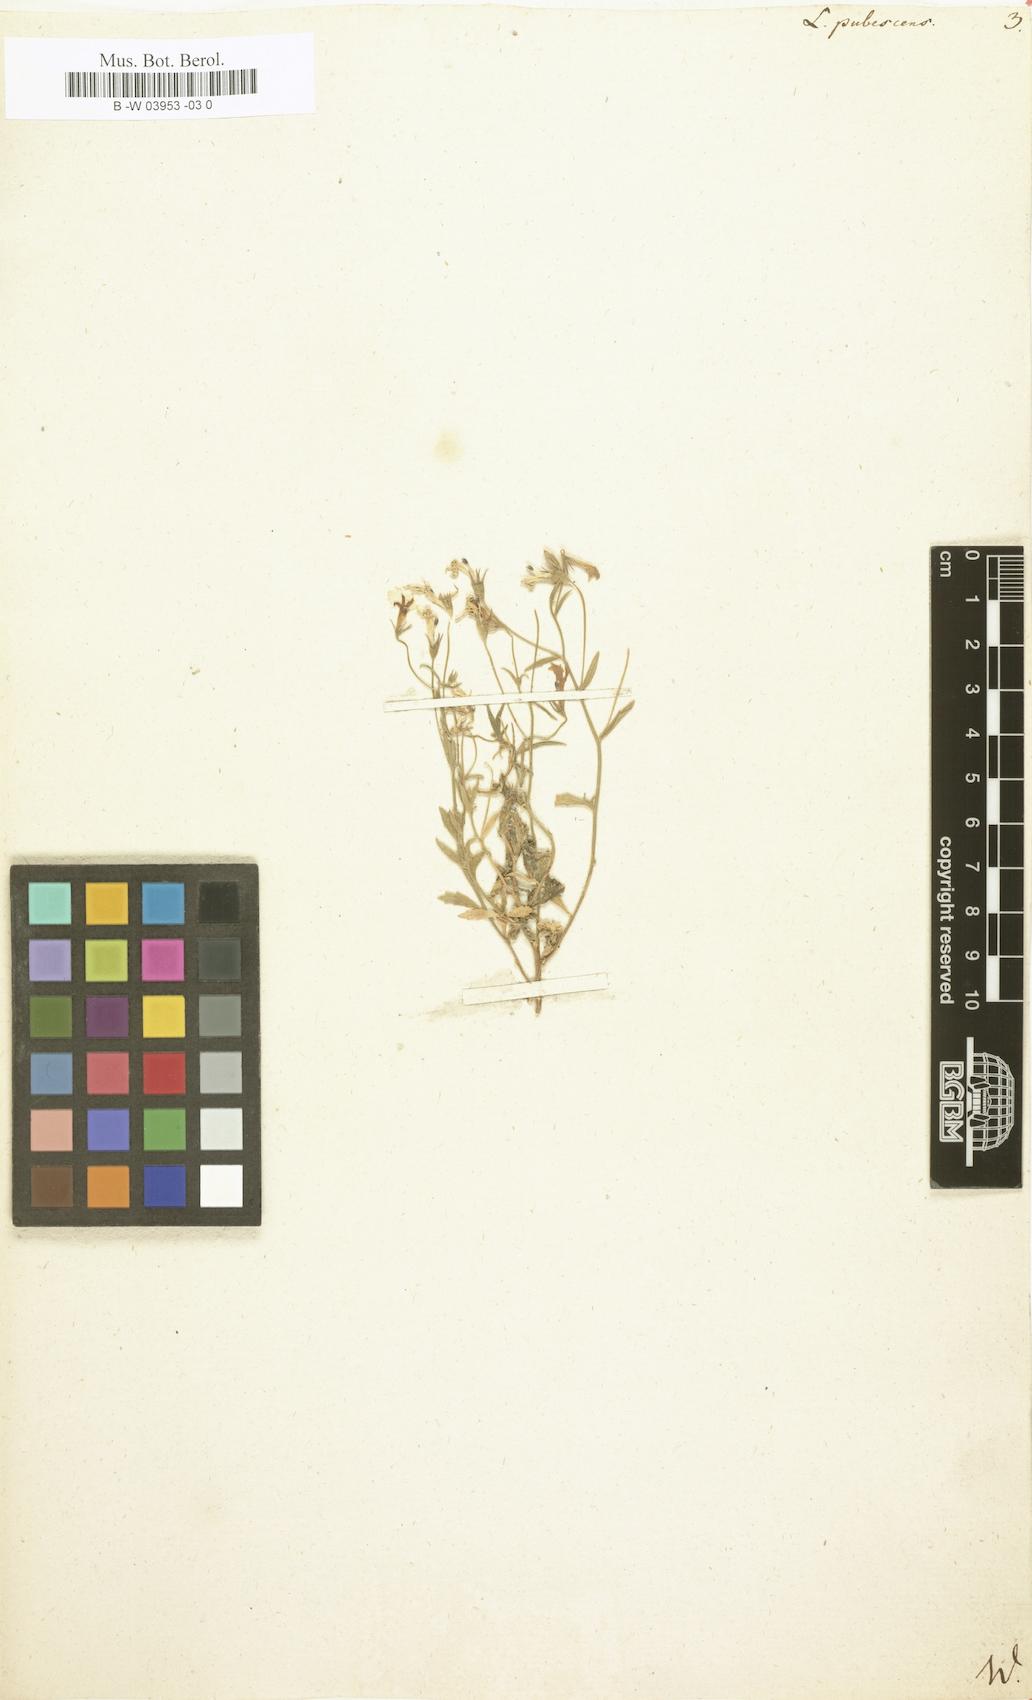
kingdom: Plantae
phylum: Tracheophyta
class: Magnoliopsida
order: Asterales
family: Campanulaceae
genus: Lobelia
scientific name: Lobelia pubescens
